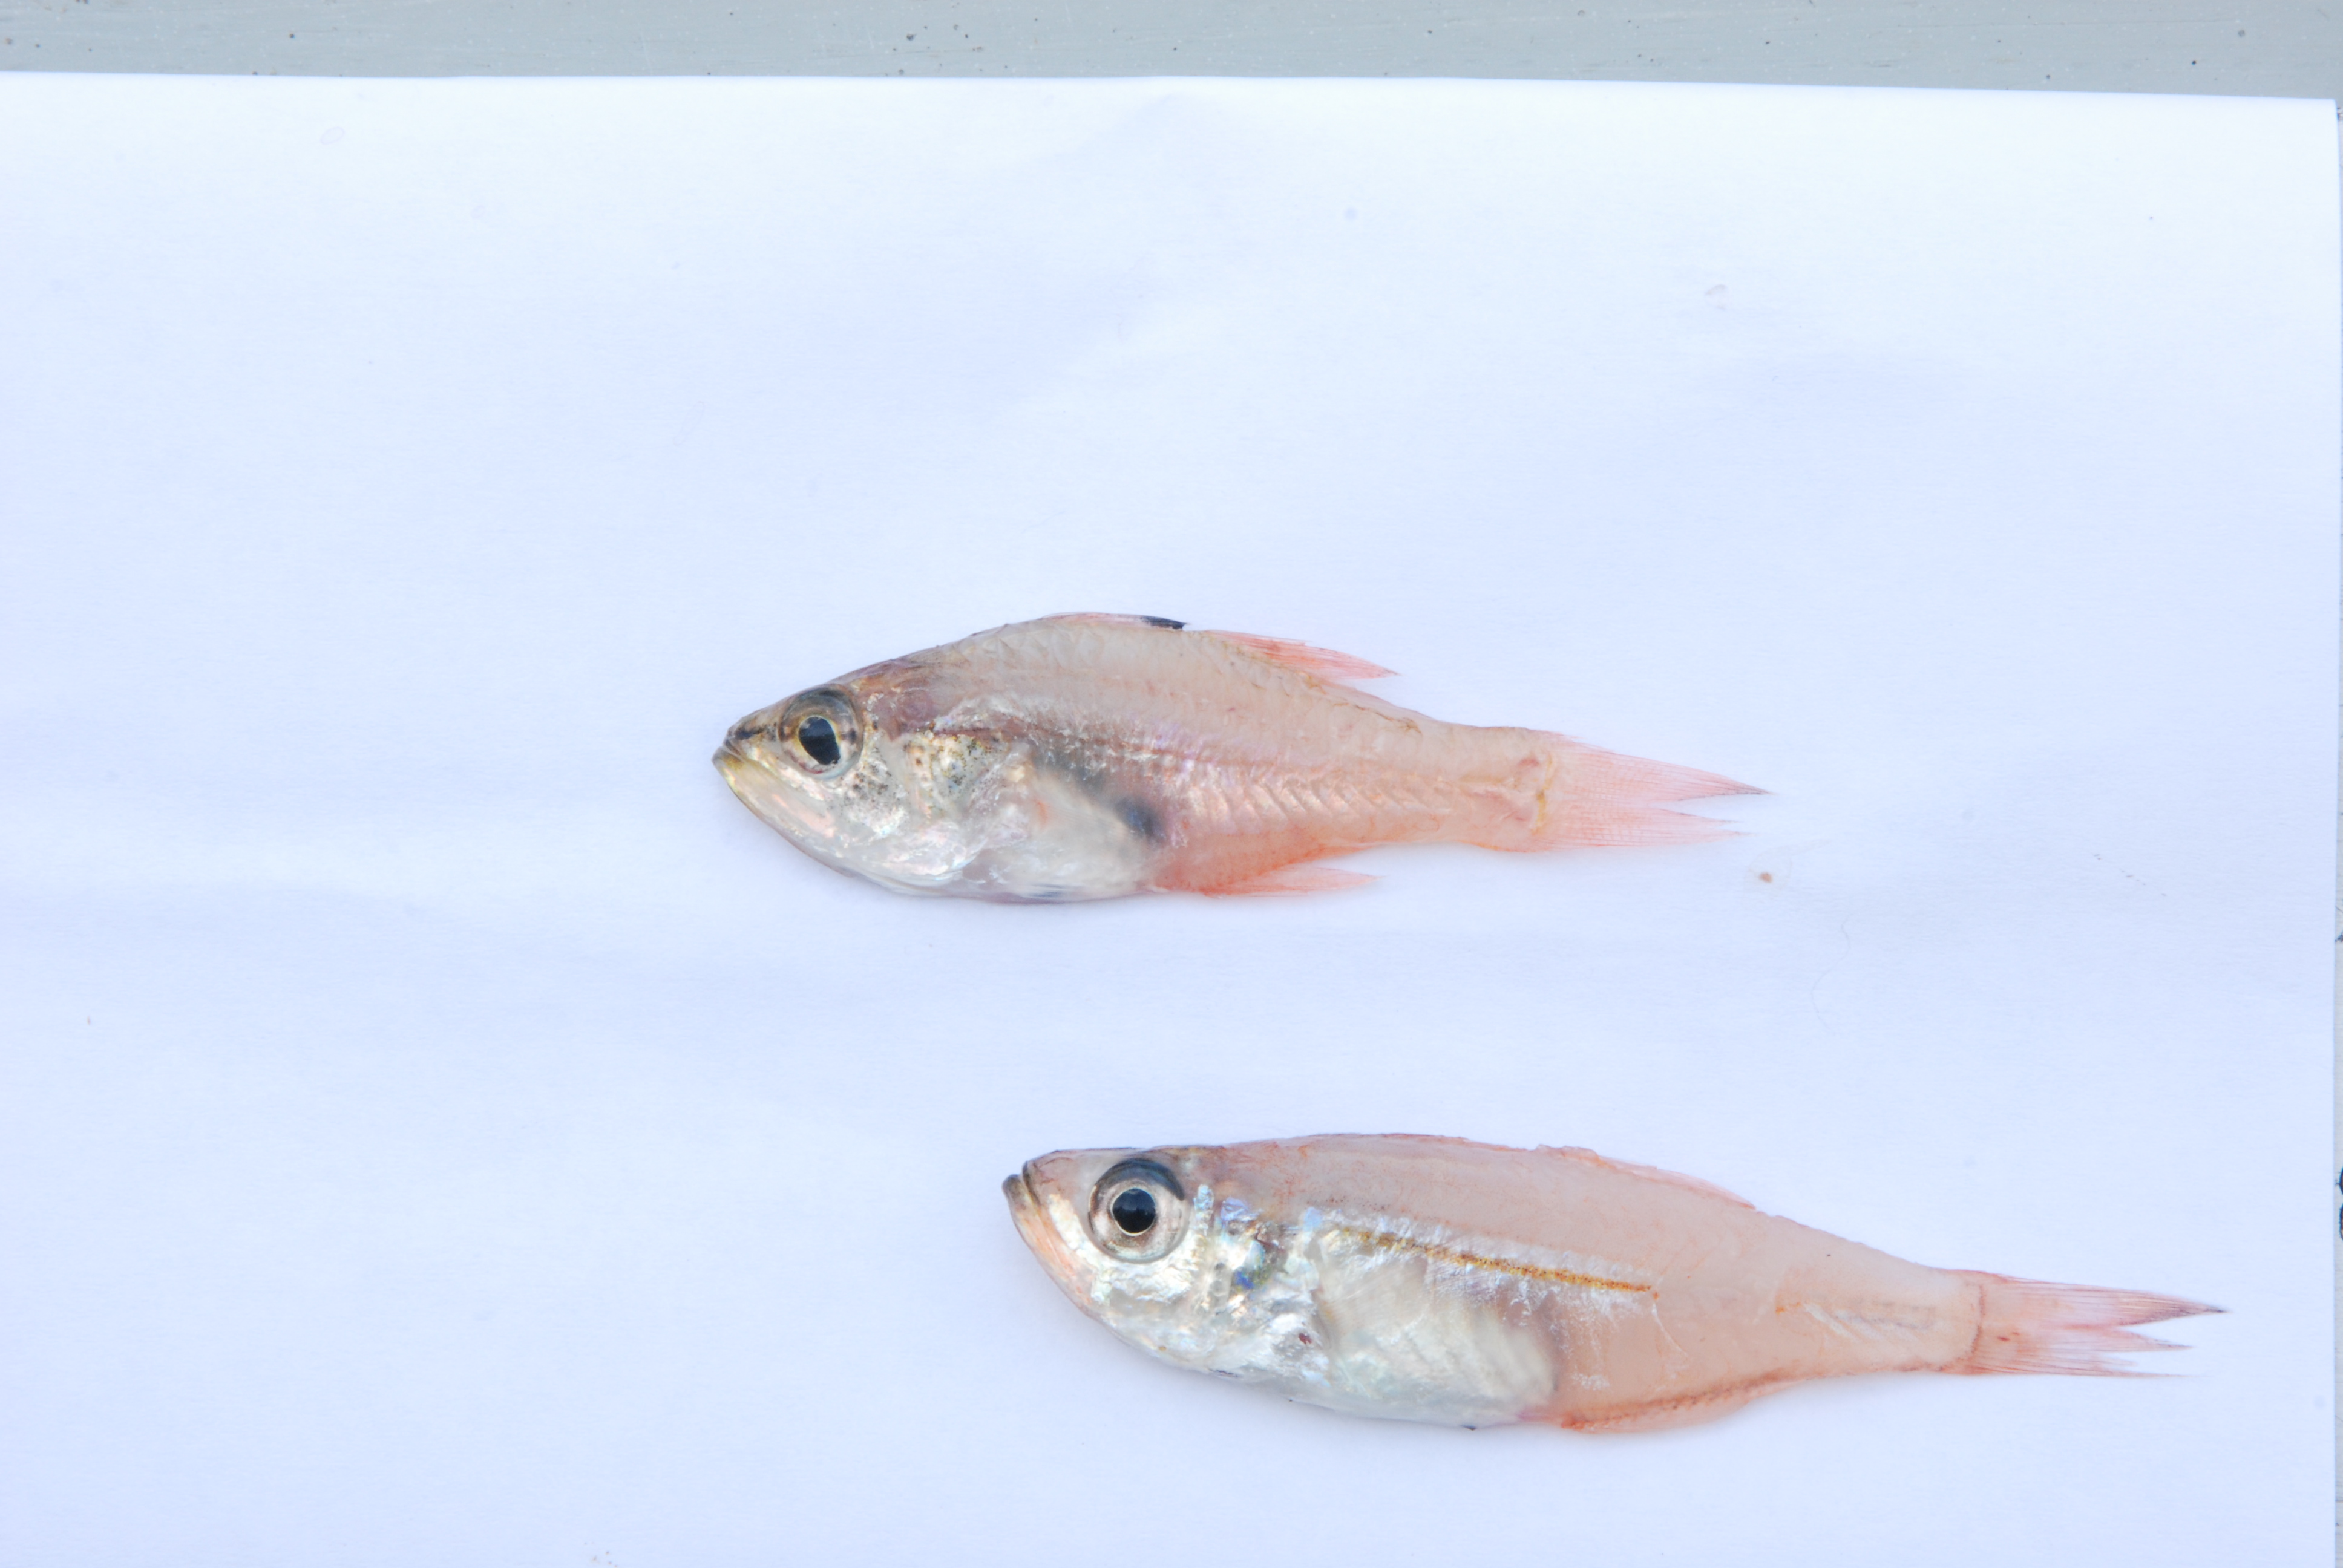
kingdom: Animalia
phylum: Chordata
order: Perciformes
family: Apogonidae
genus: Ostorhinchus
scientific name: Ostorhinchus gularis
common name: Gular cardinalfish
